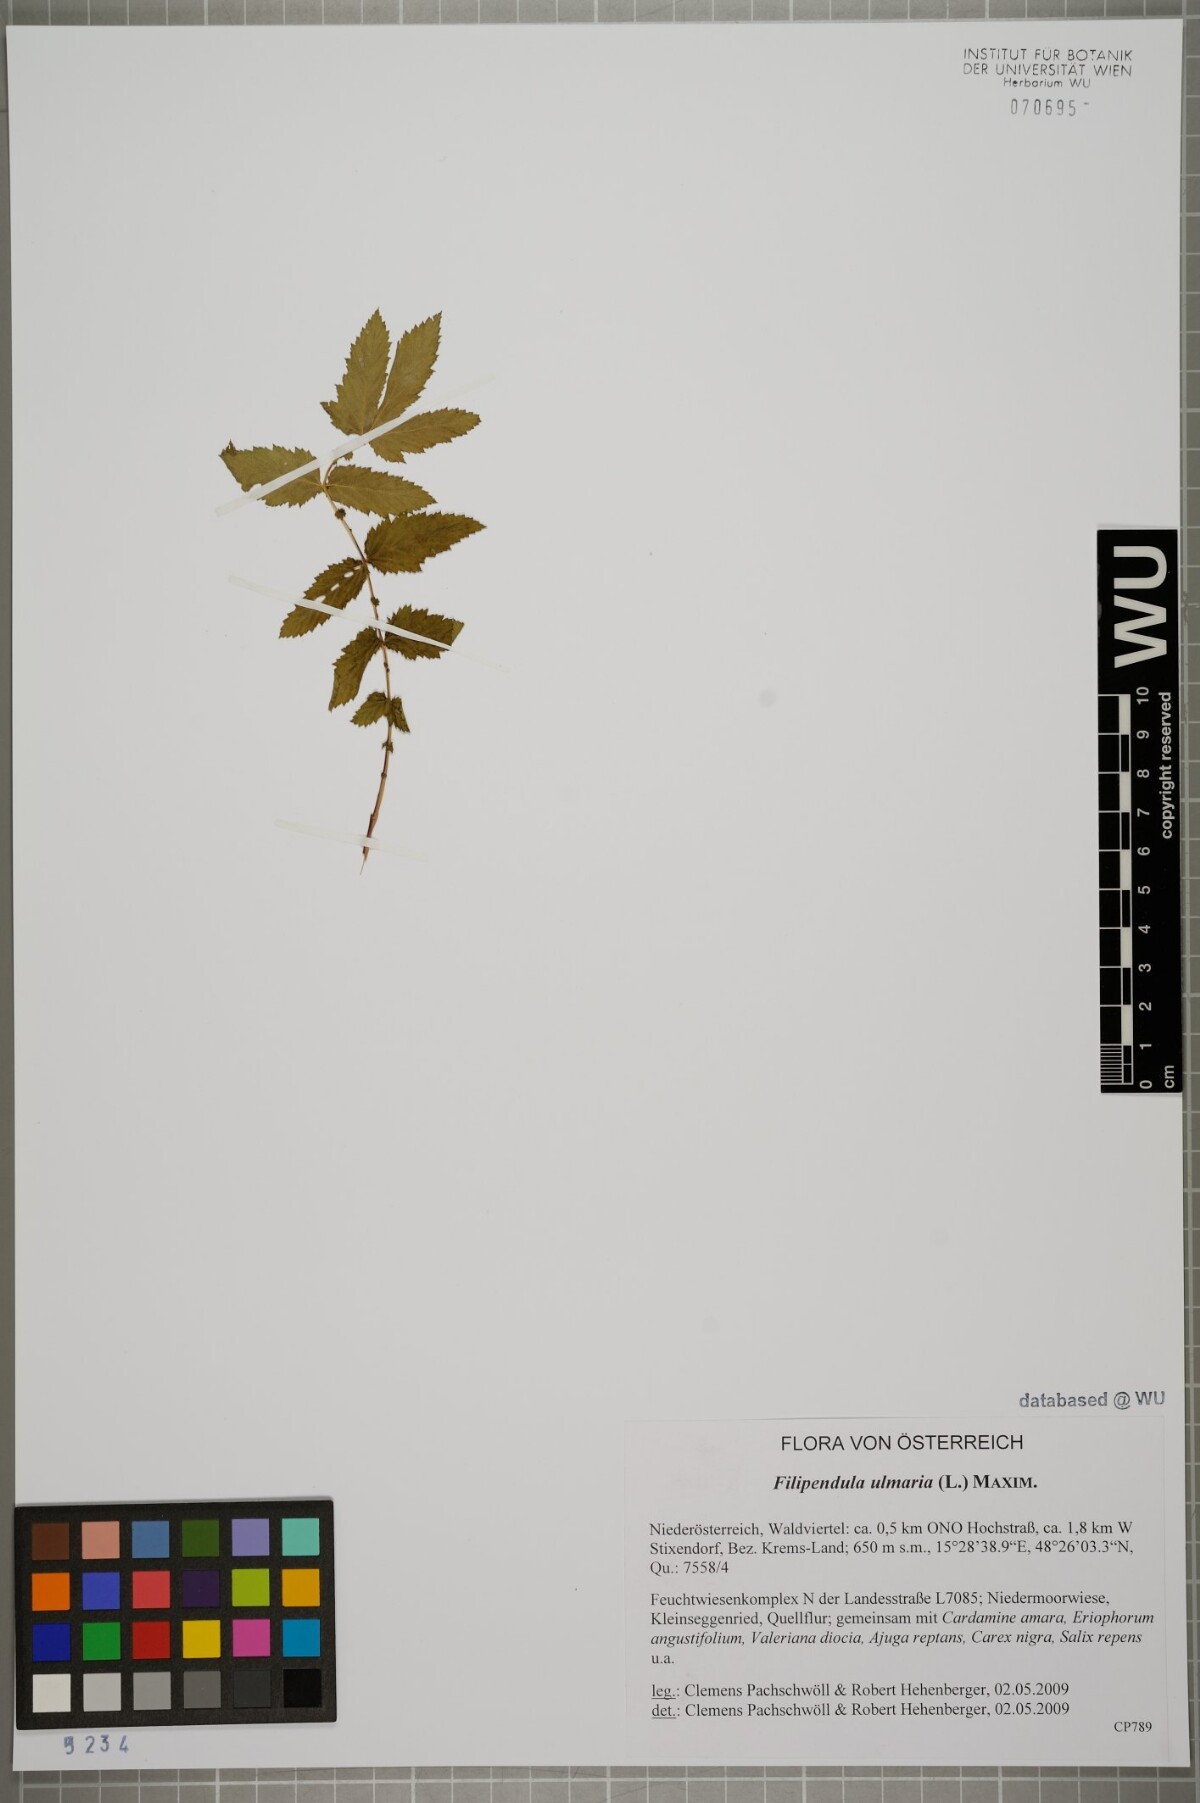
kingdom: Plantae
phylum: Tracheophyta
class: Magnoliopsida
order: Rosales
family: Rosaceae
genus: Filipendula
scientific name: Filipendula ulmaria
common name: Meadowsweet
